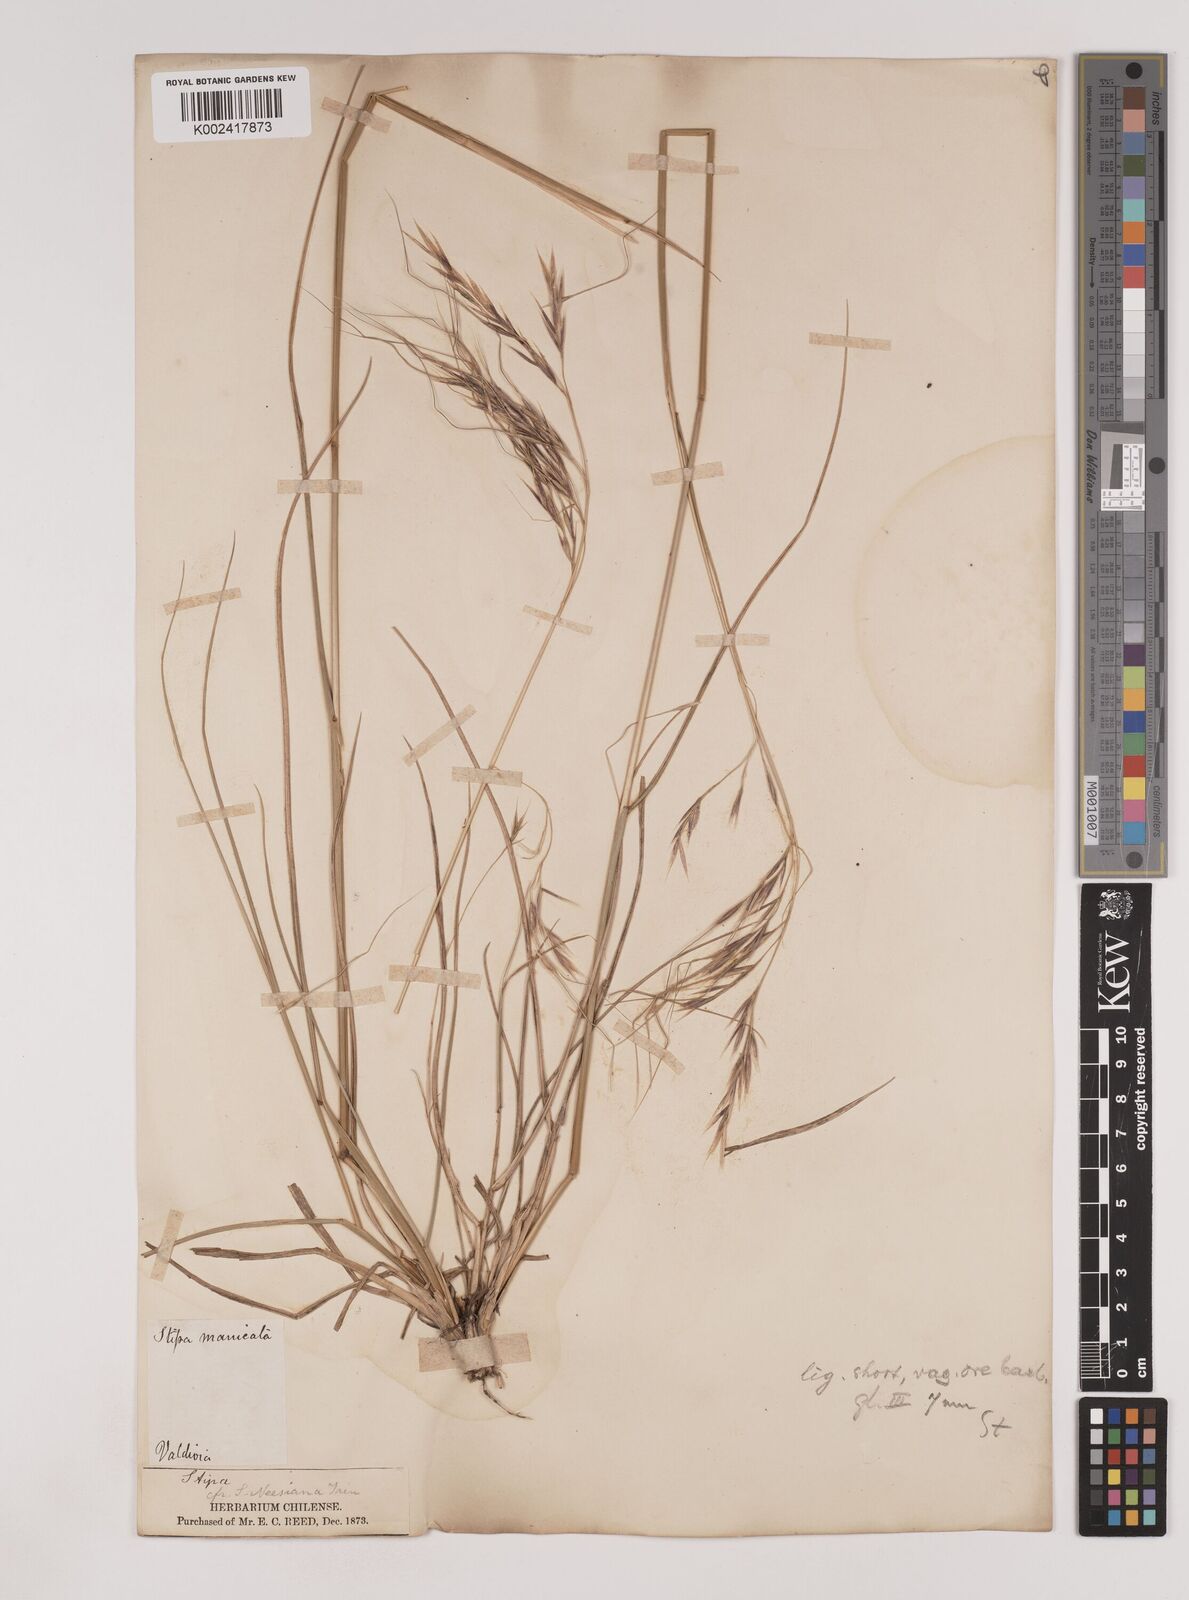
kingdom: Plantae
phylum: Tracheophyta
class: Liliopsida
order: Poales
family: Poaceae
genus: Nassella
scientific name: Nassella neesiana
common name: American needle-grass
